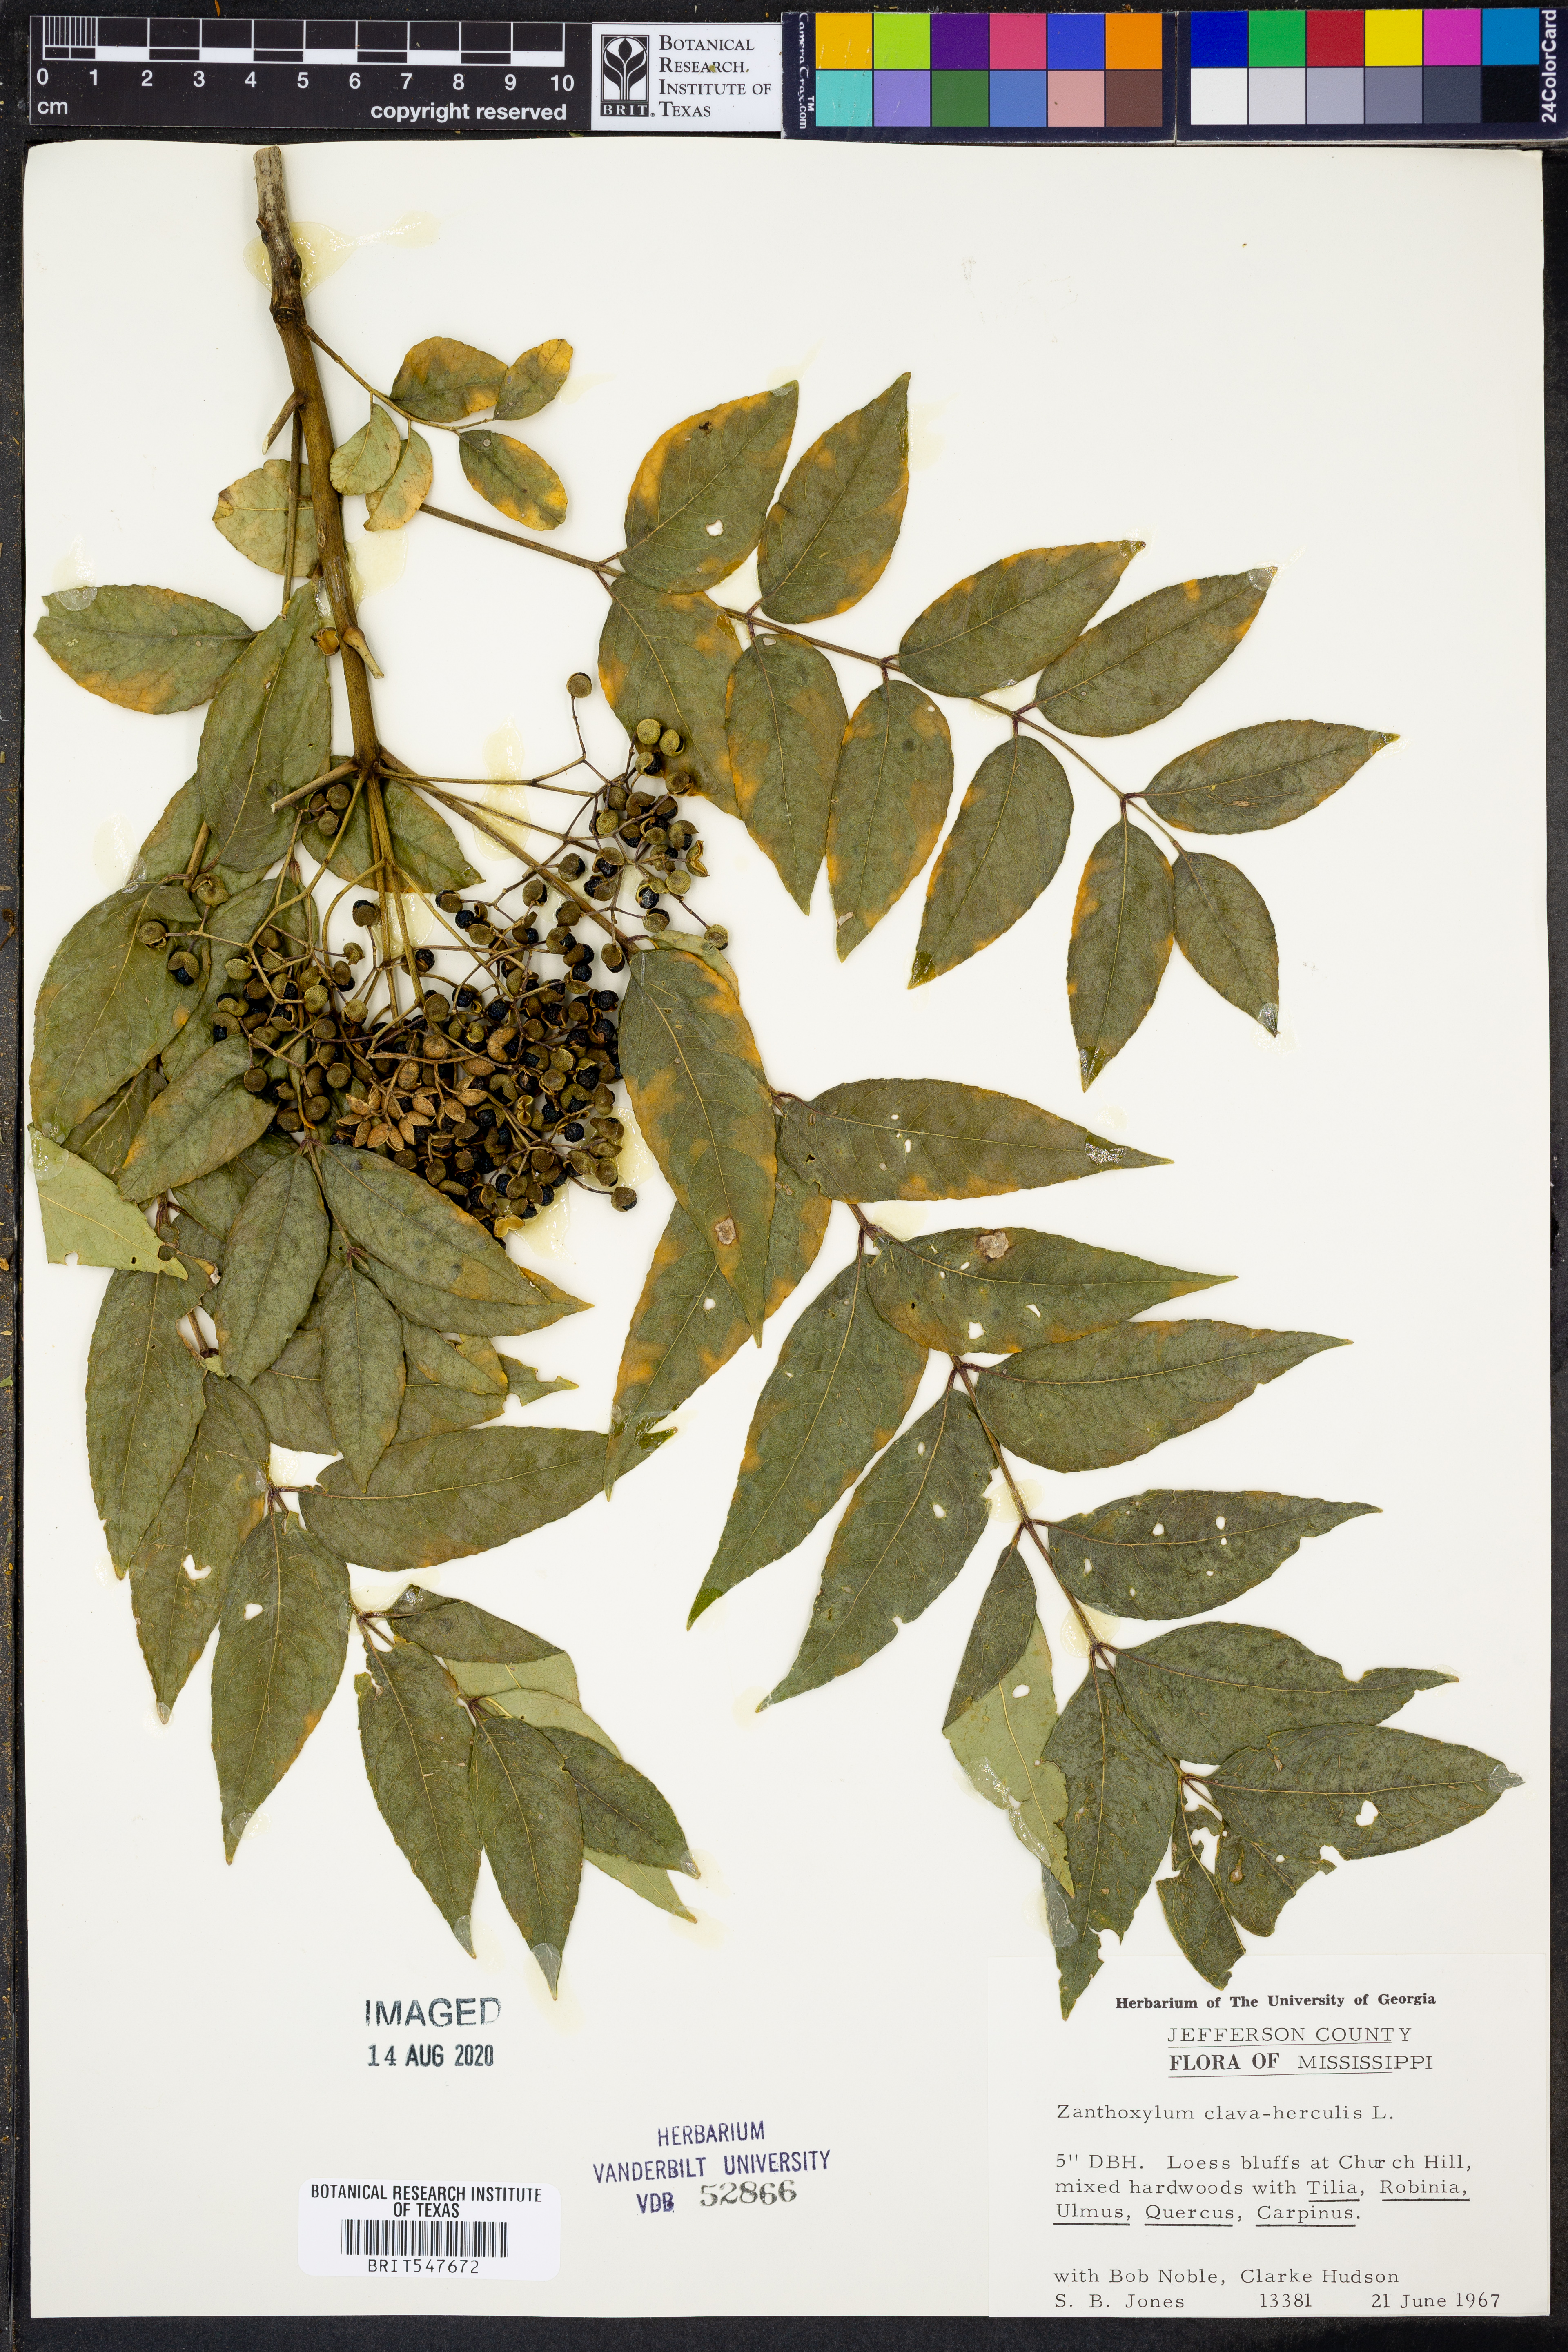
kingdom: Plantae
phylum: Tracheophyta
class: Magnoliopsida
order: Sapindales
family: Rutaceae
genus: Zanthoxylum
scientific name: Zanthoxylum avicennae
